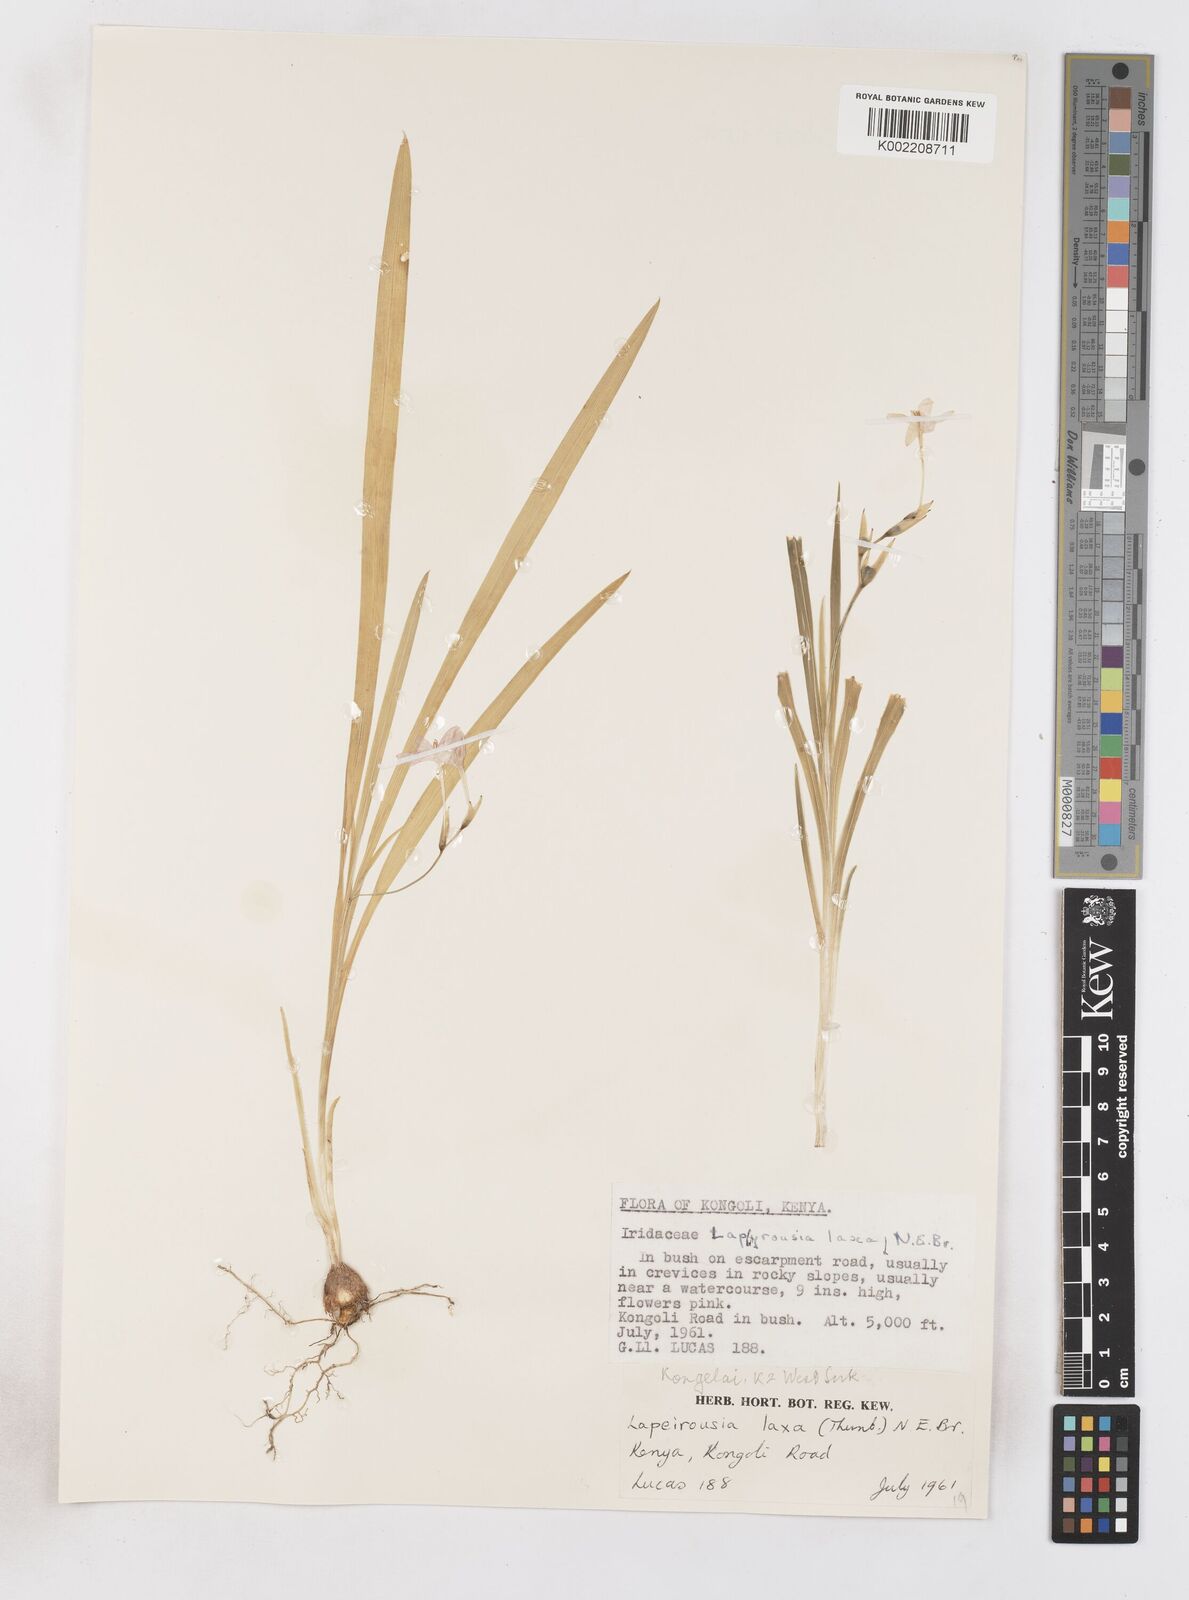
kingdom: Plantae
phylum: Tracheophyta
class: Liliopsida
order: Asparagales
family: Iridaceae
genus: Freesia
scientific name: Freesia laxa
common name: False freesia
